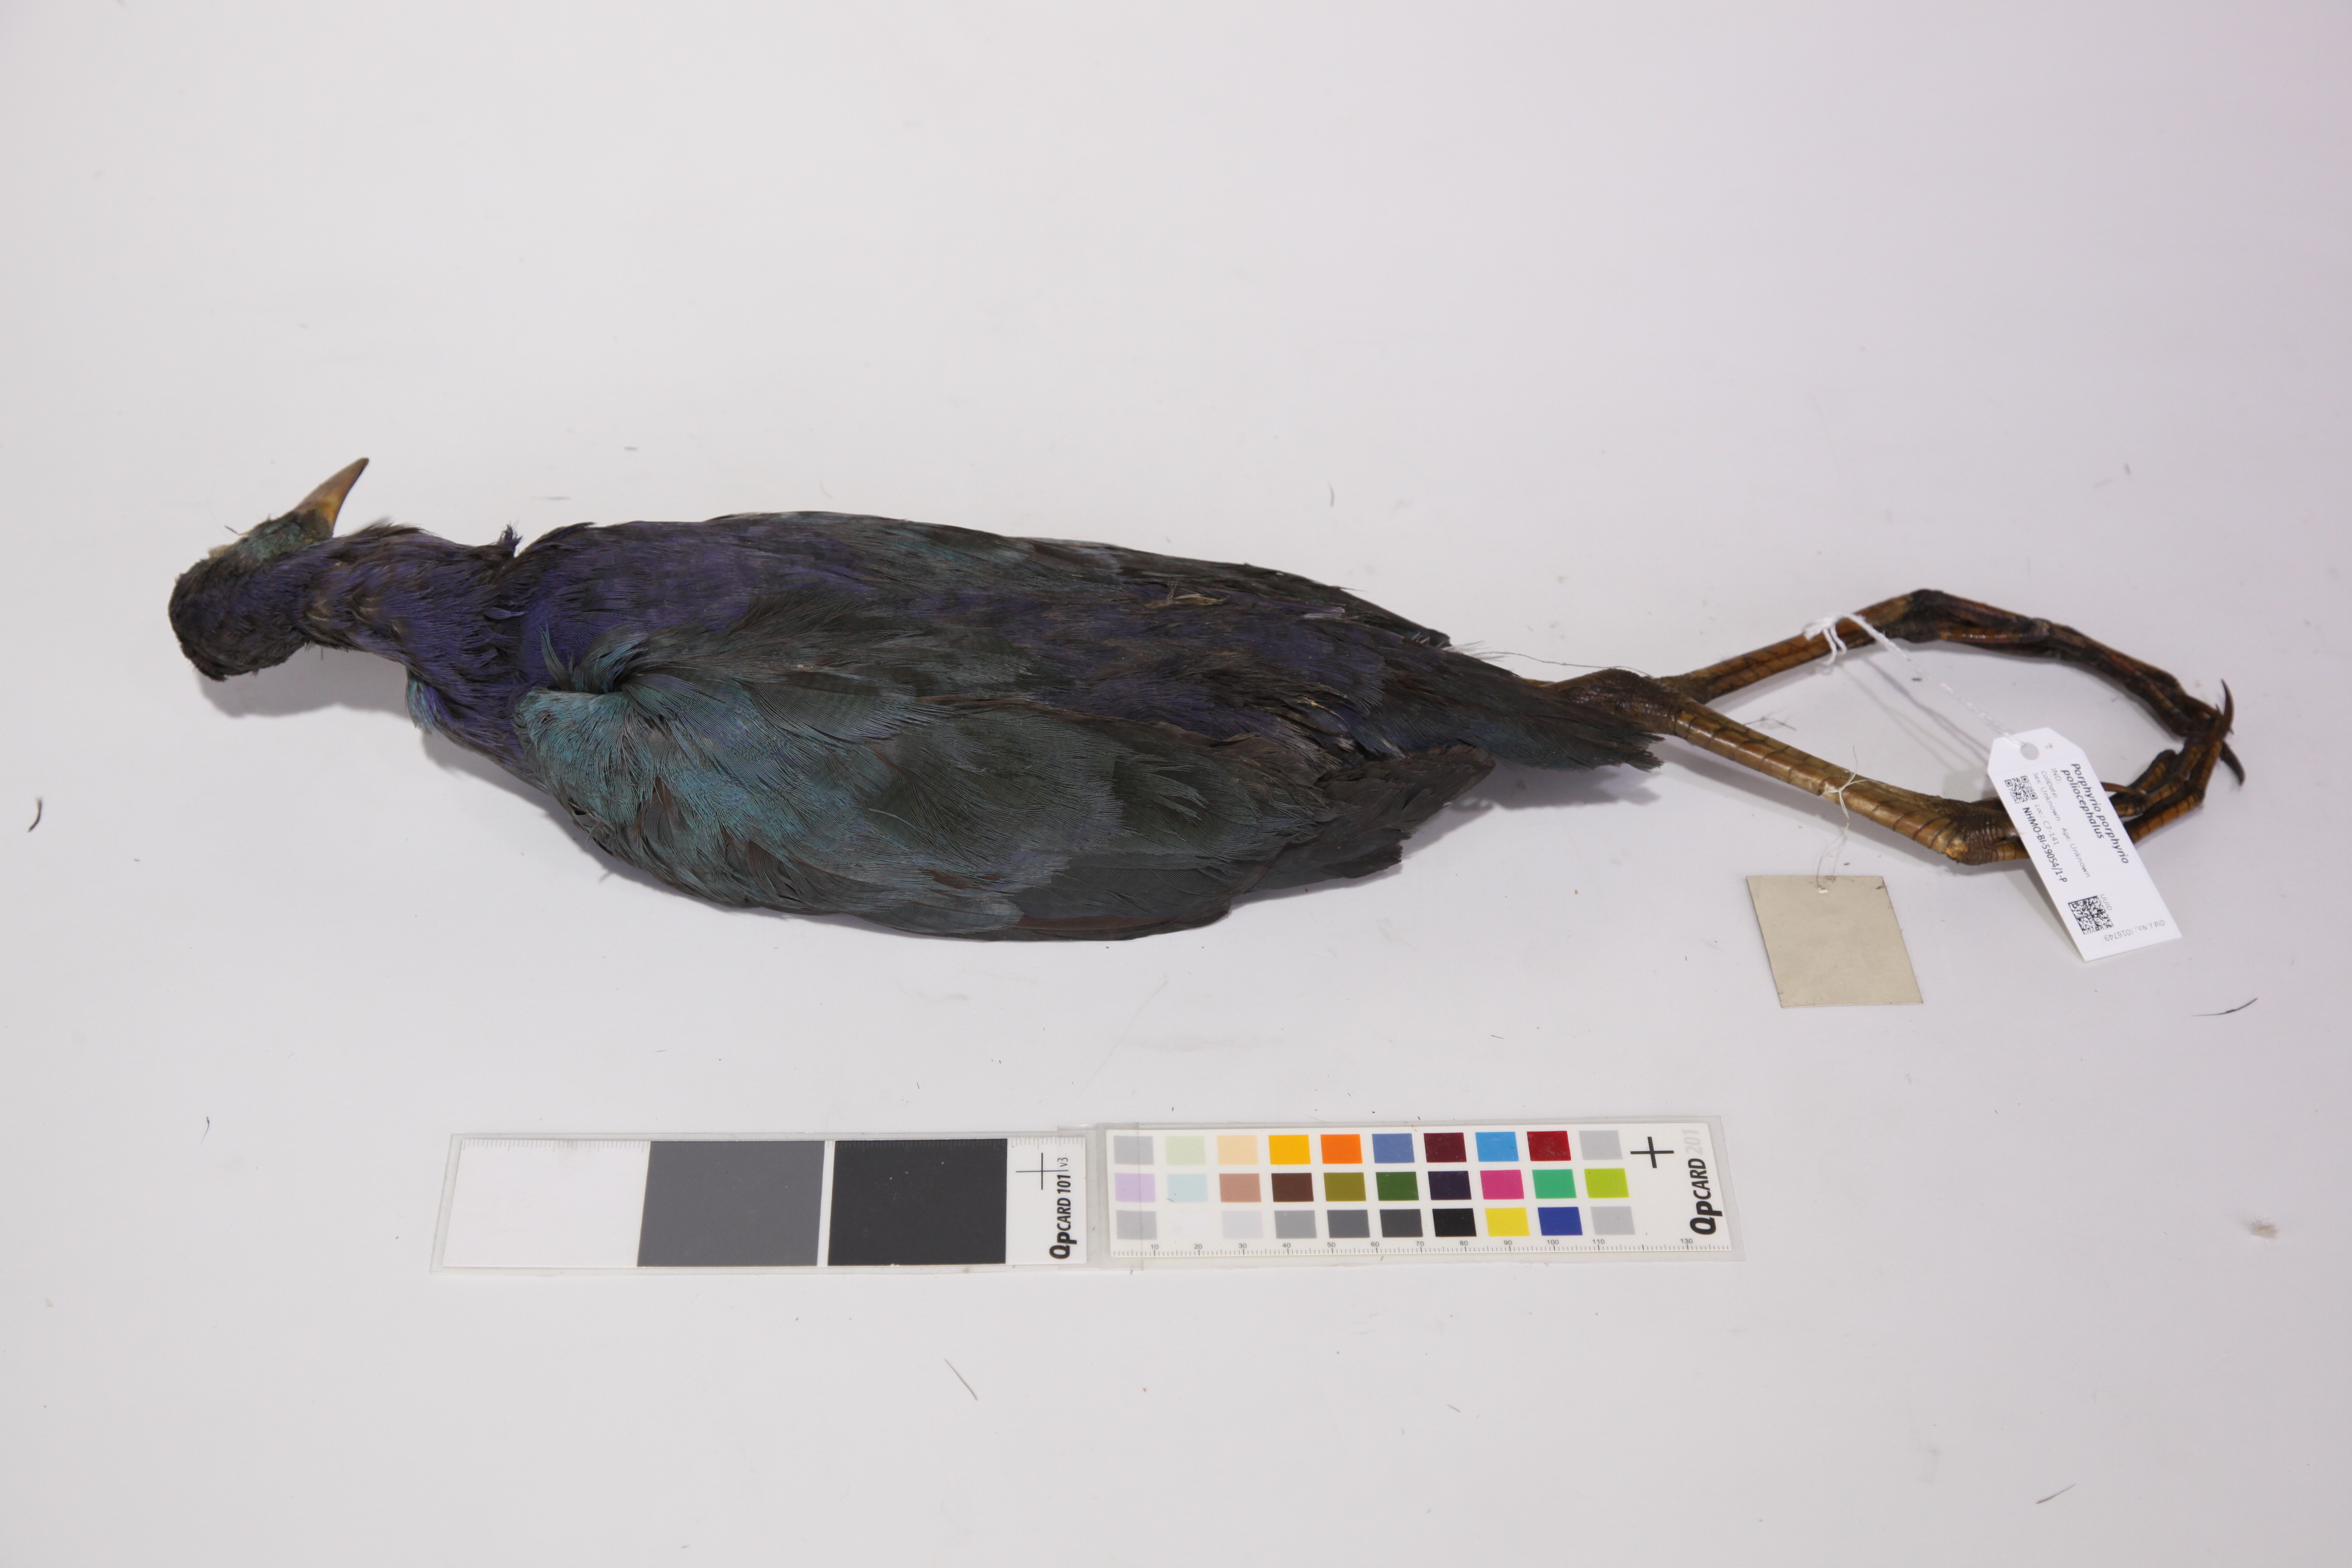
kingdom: Animalia
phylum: Chordata
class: Aves
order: Gruiformes
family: Rallidae
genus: Porphyrio
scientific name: Porphyrio porphyrio
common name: Purple swamphen
